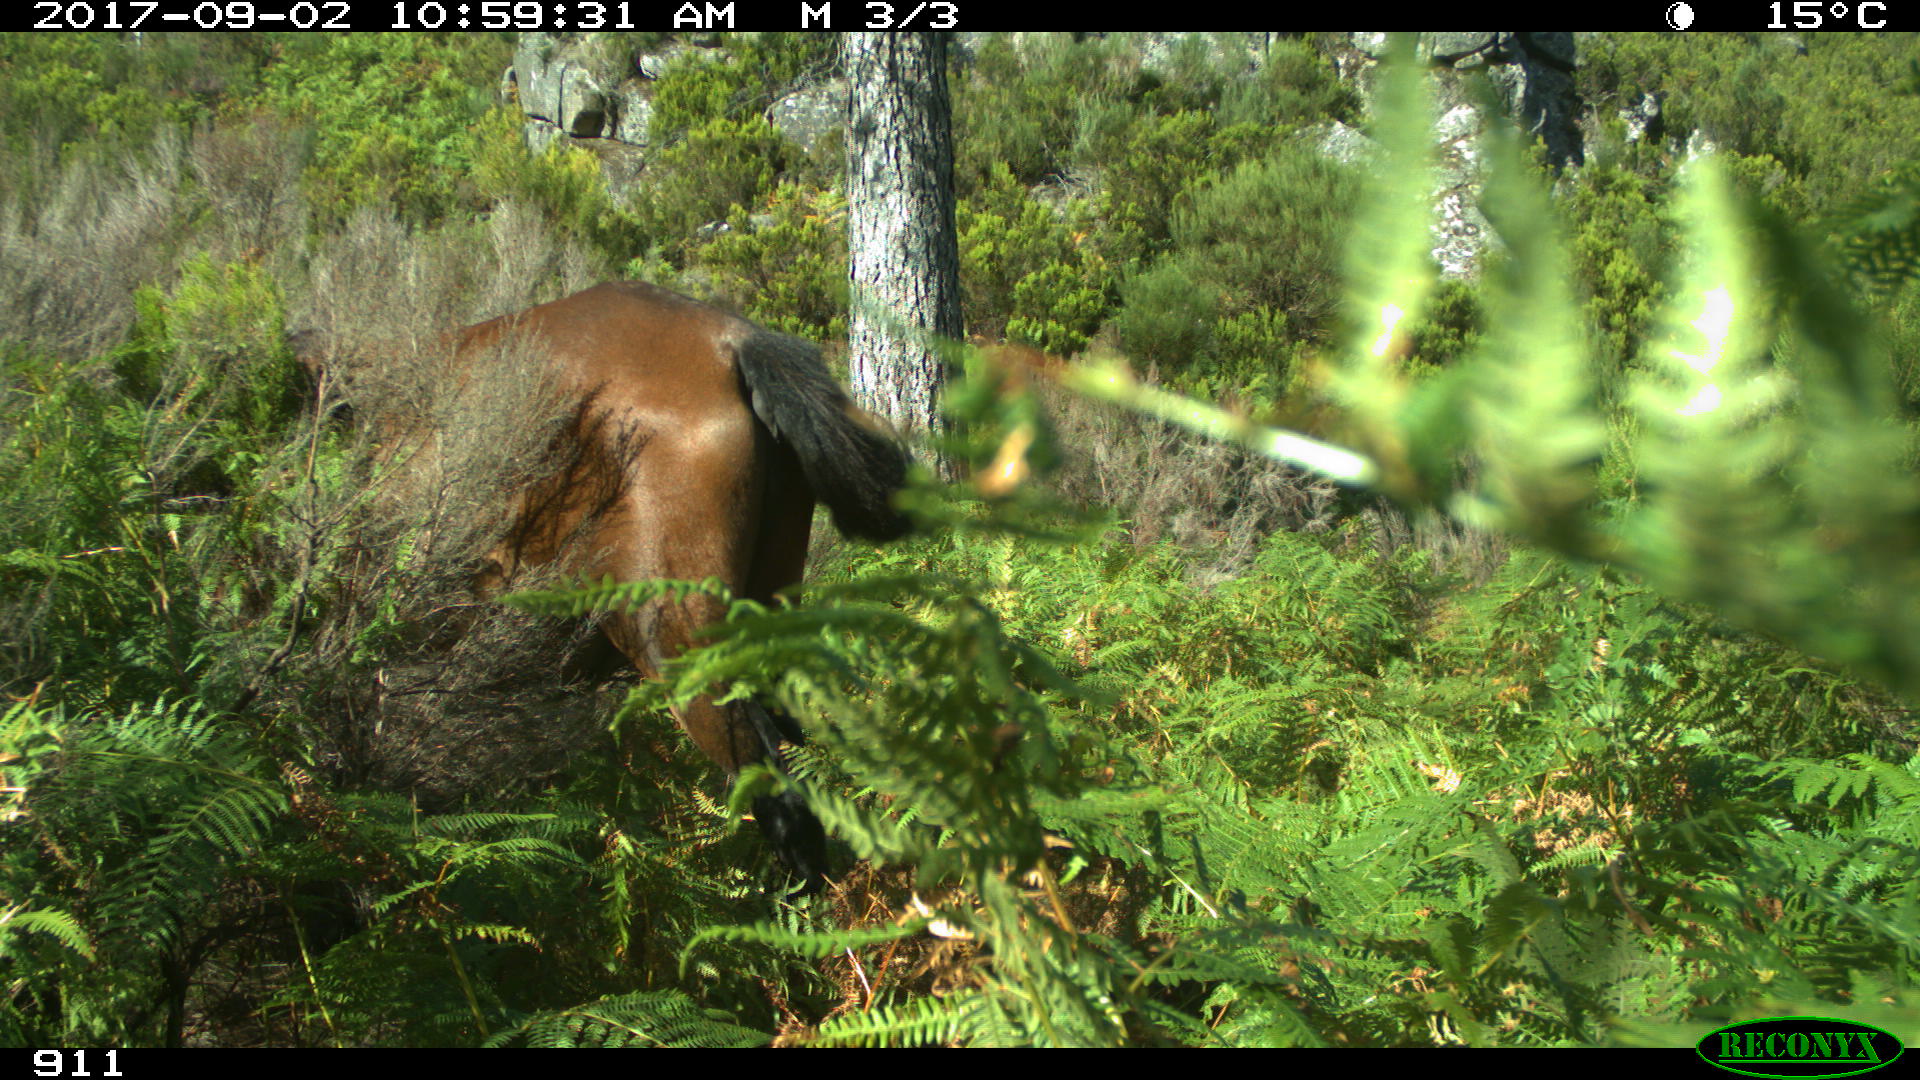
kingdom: Animalia
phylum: Chordata
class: Mammalia
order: Perissodactyla
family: Equidae
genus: Equus
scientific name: Equus caballus
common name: Horse
